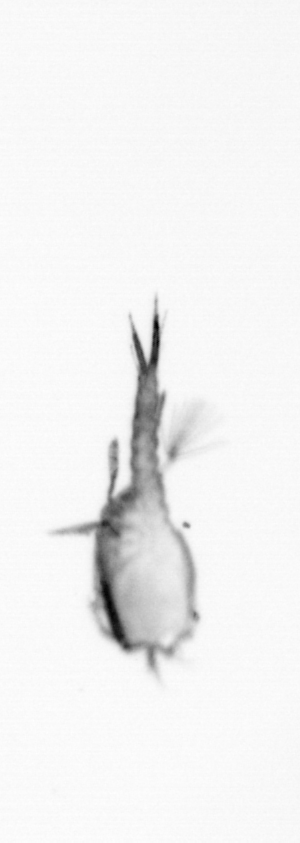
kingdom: Animalia
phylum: Arthropoda
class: Copepoda
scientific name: Copepoda
